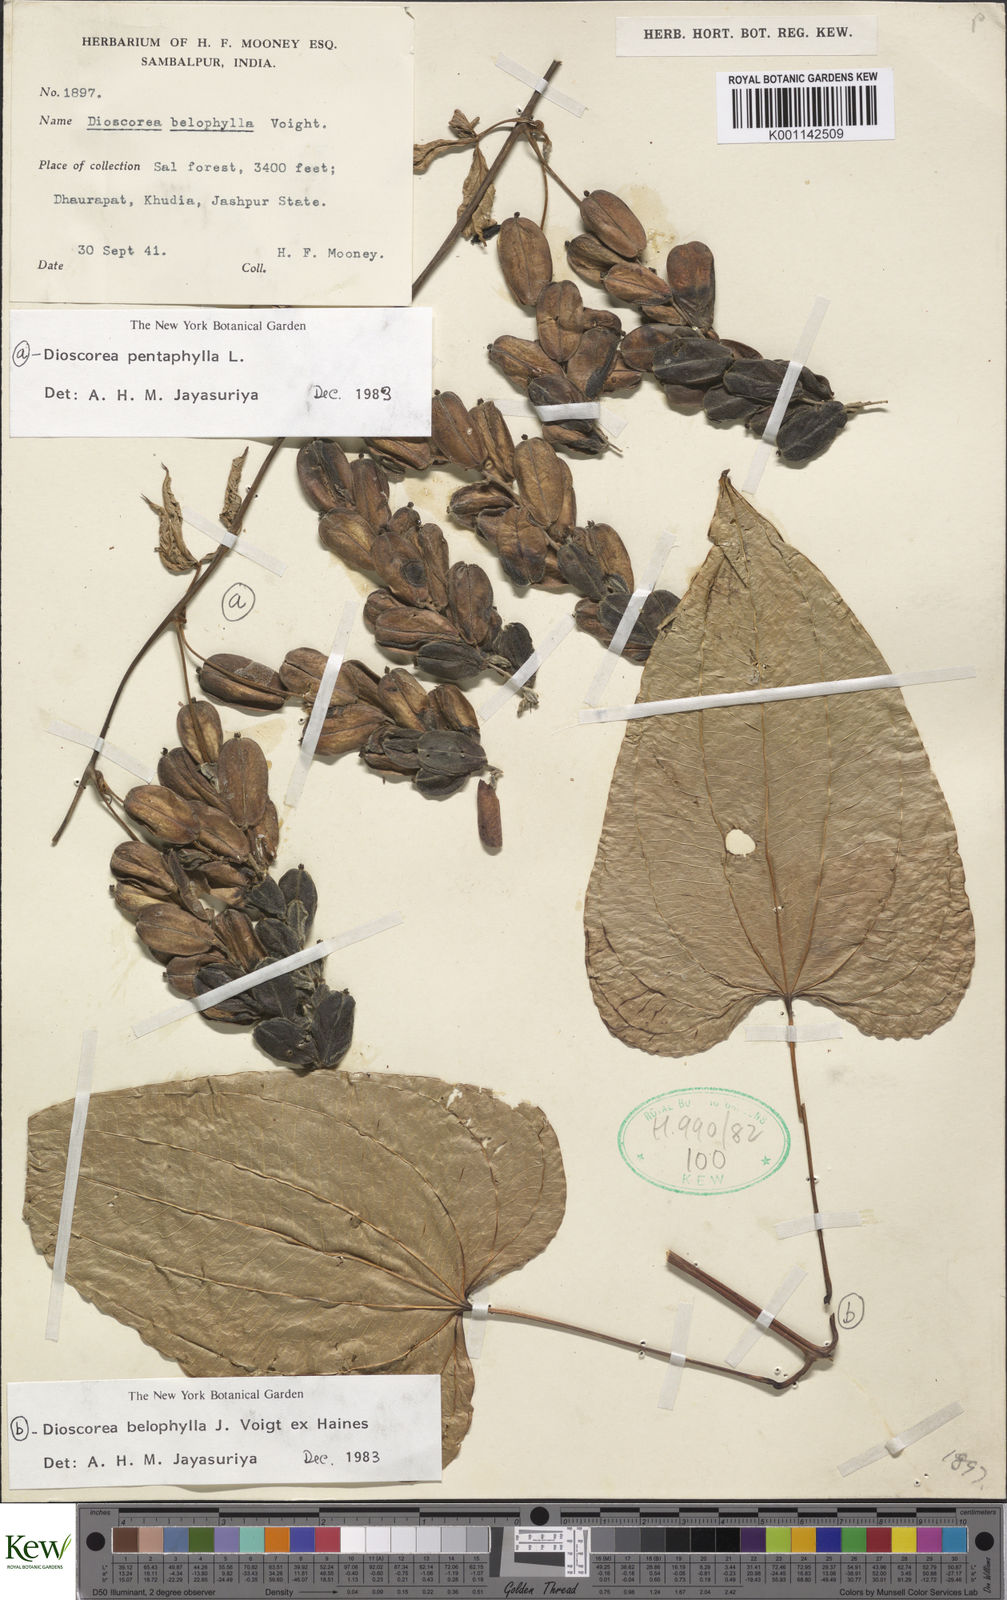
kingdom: Plantae
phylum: Tracheophyta
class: Liliopsida
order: Dioscoreales
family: Dioscoreaceae
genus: Dioscorea
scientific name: Dioscorea pentaphylla
